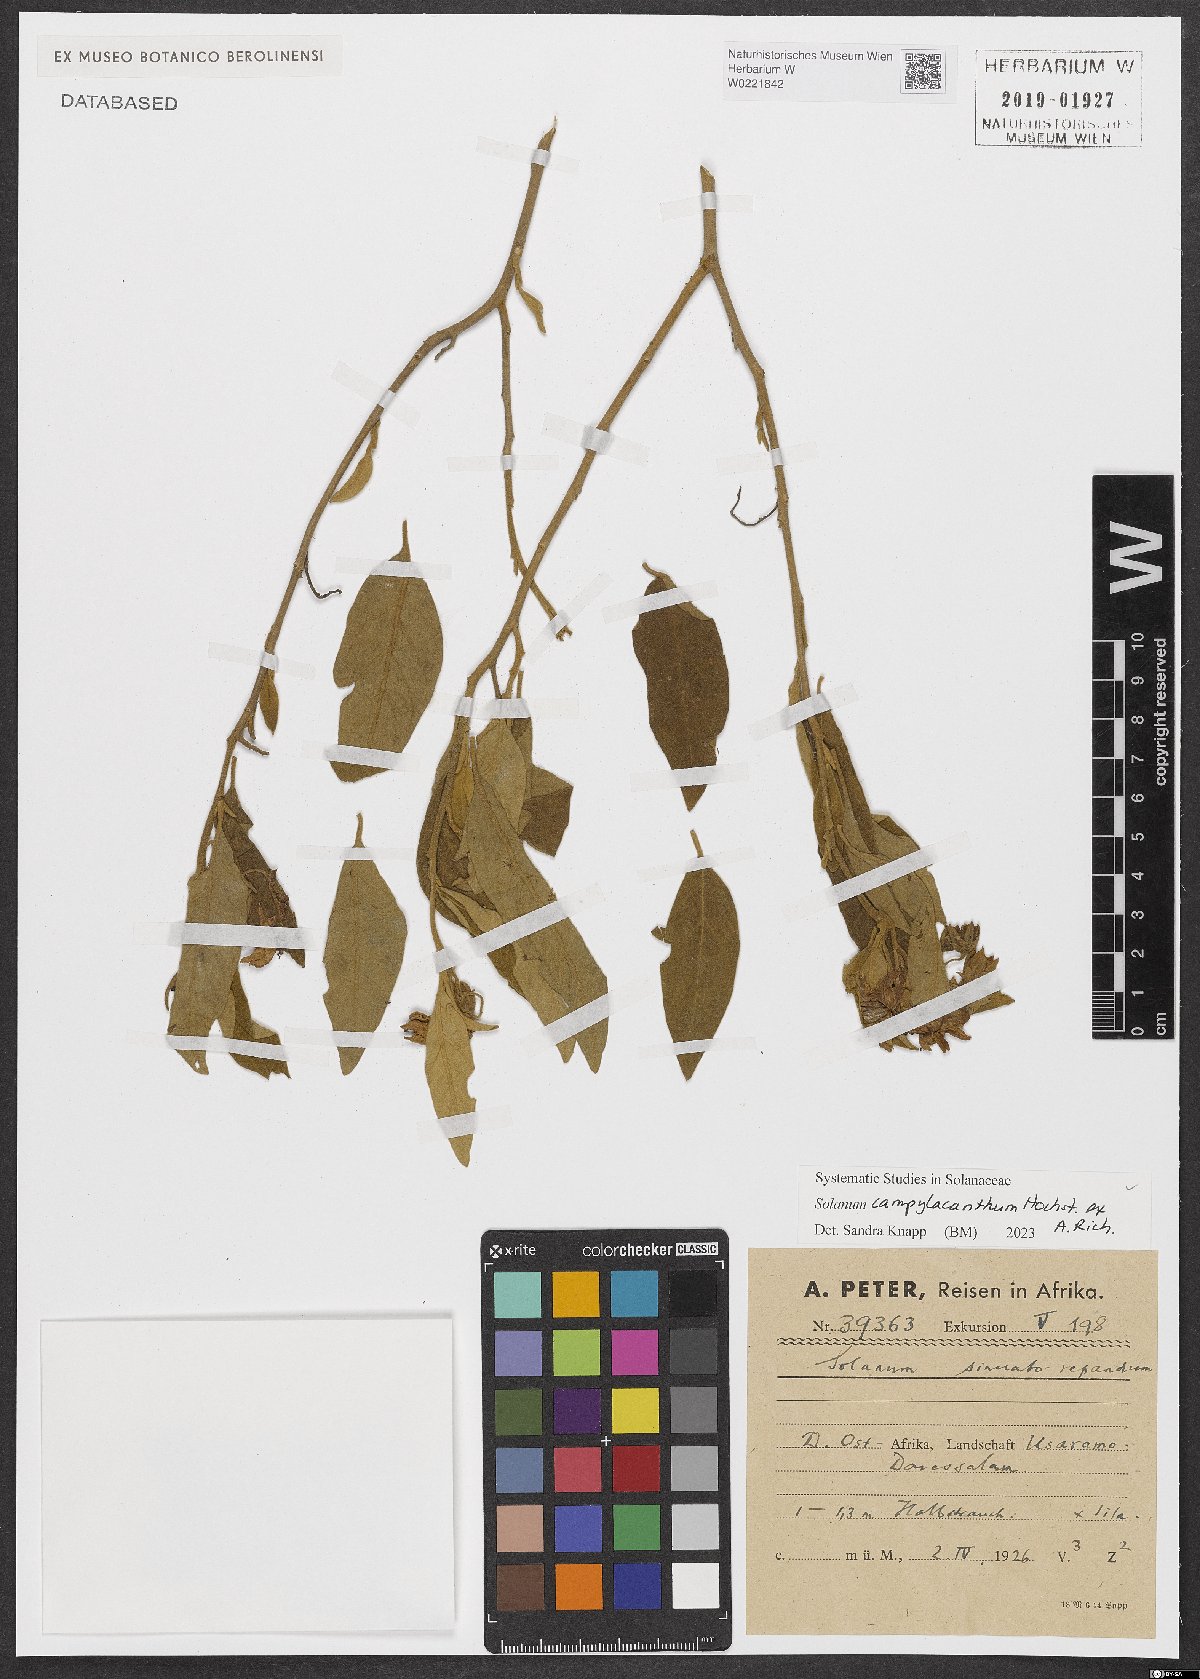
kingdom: Plantae
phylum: Tracheophyta
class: Magnoliopsida
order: Solanales
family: Solanaceae
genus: Solanum
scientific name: Solanum campylacanthum
